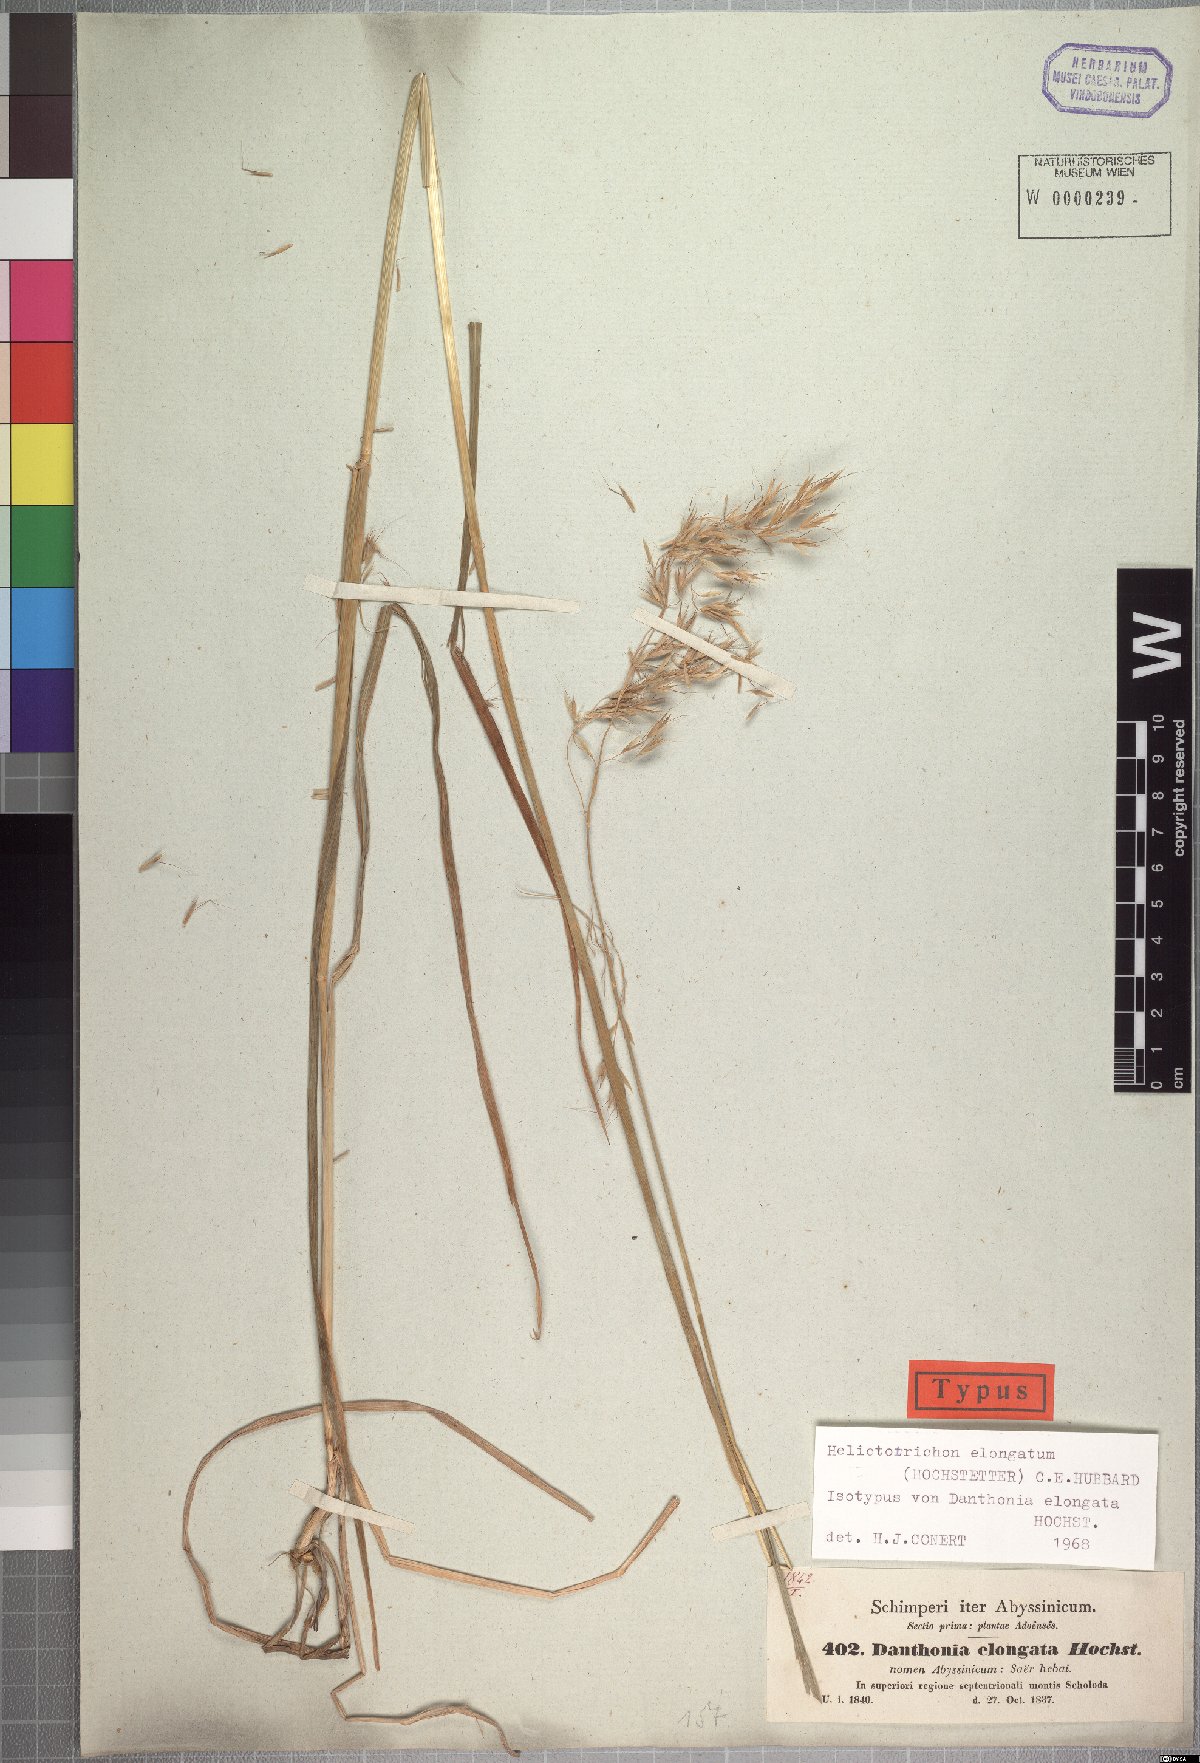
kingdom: Plantae
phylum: Tracheophyta
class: Liliopsida
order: Poales
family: Poaceae
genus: Trisetopsis
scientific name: Trisetopsis elongata
